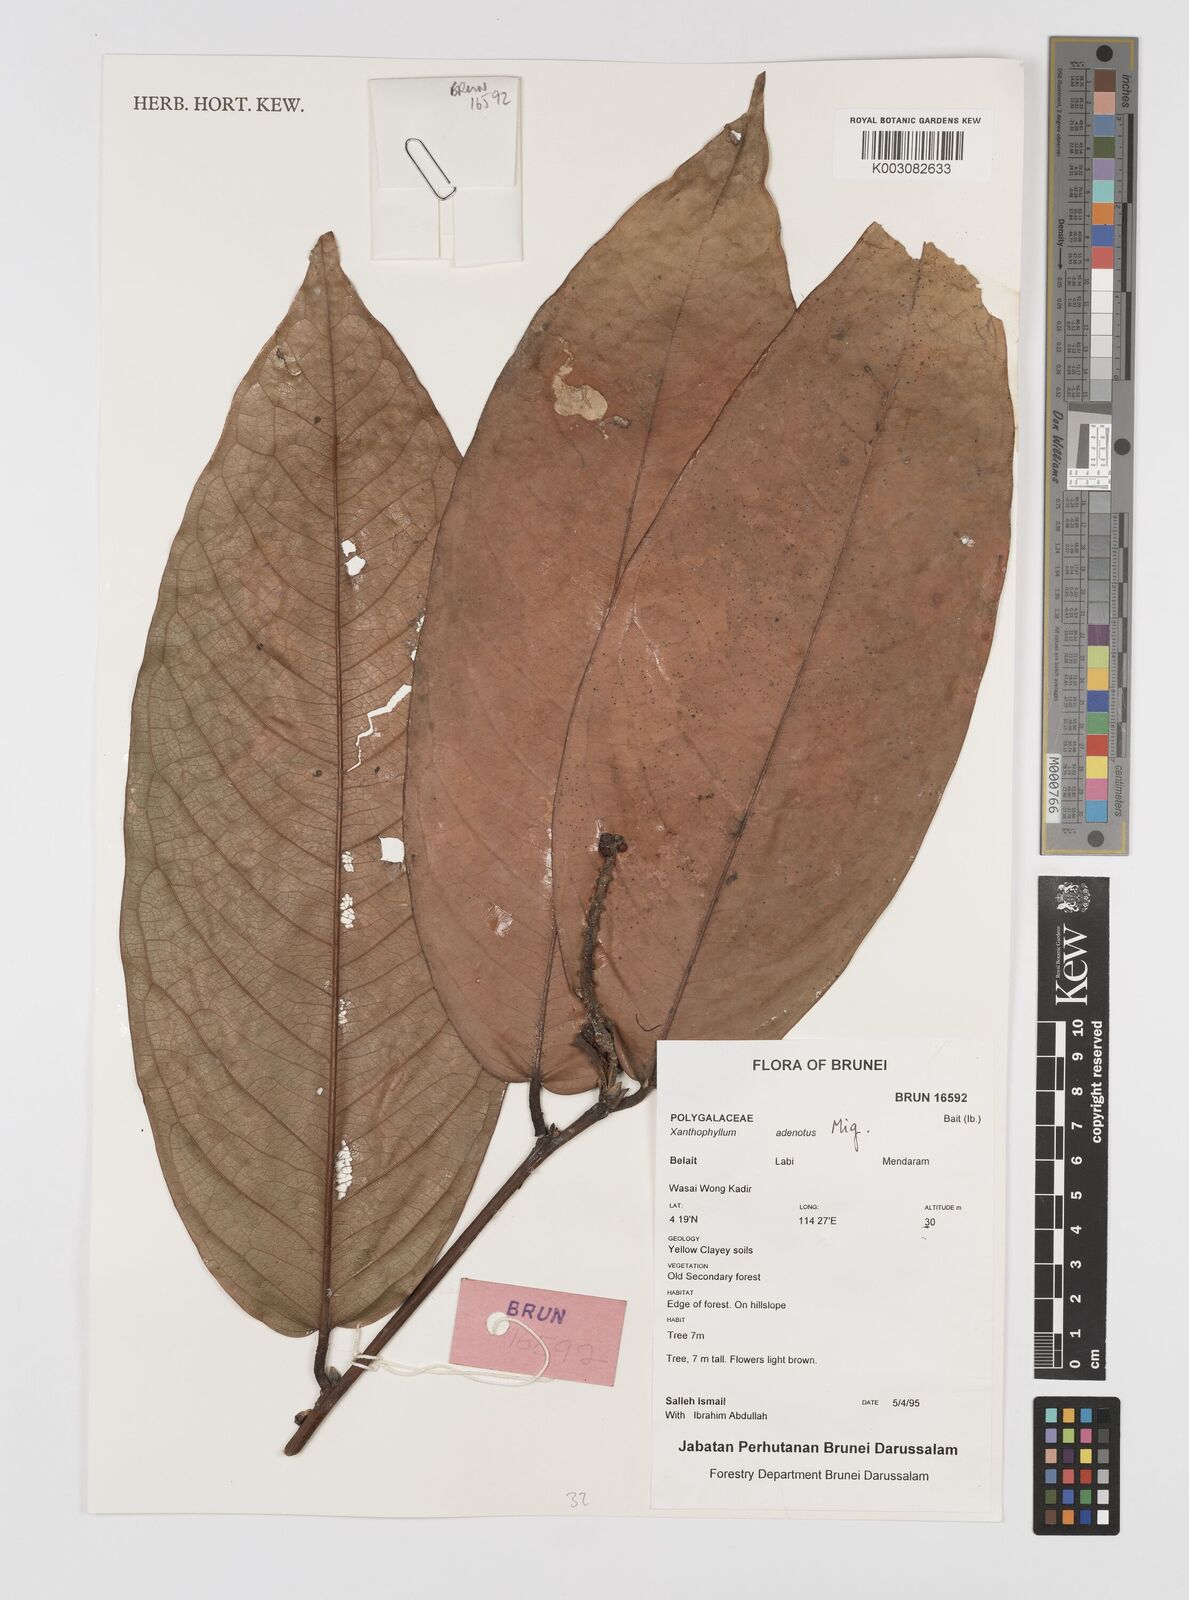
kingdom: Plantae
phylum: Tracheophyta
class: Magnoliopsida
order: Fabales
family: Polygalaceae
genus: Xanthophyllum
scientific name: Xanthophyllum adenotus
